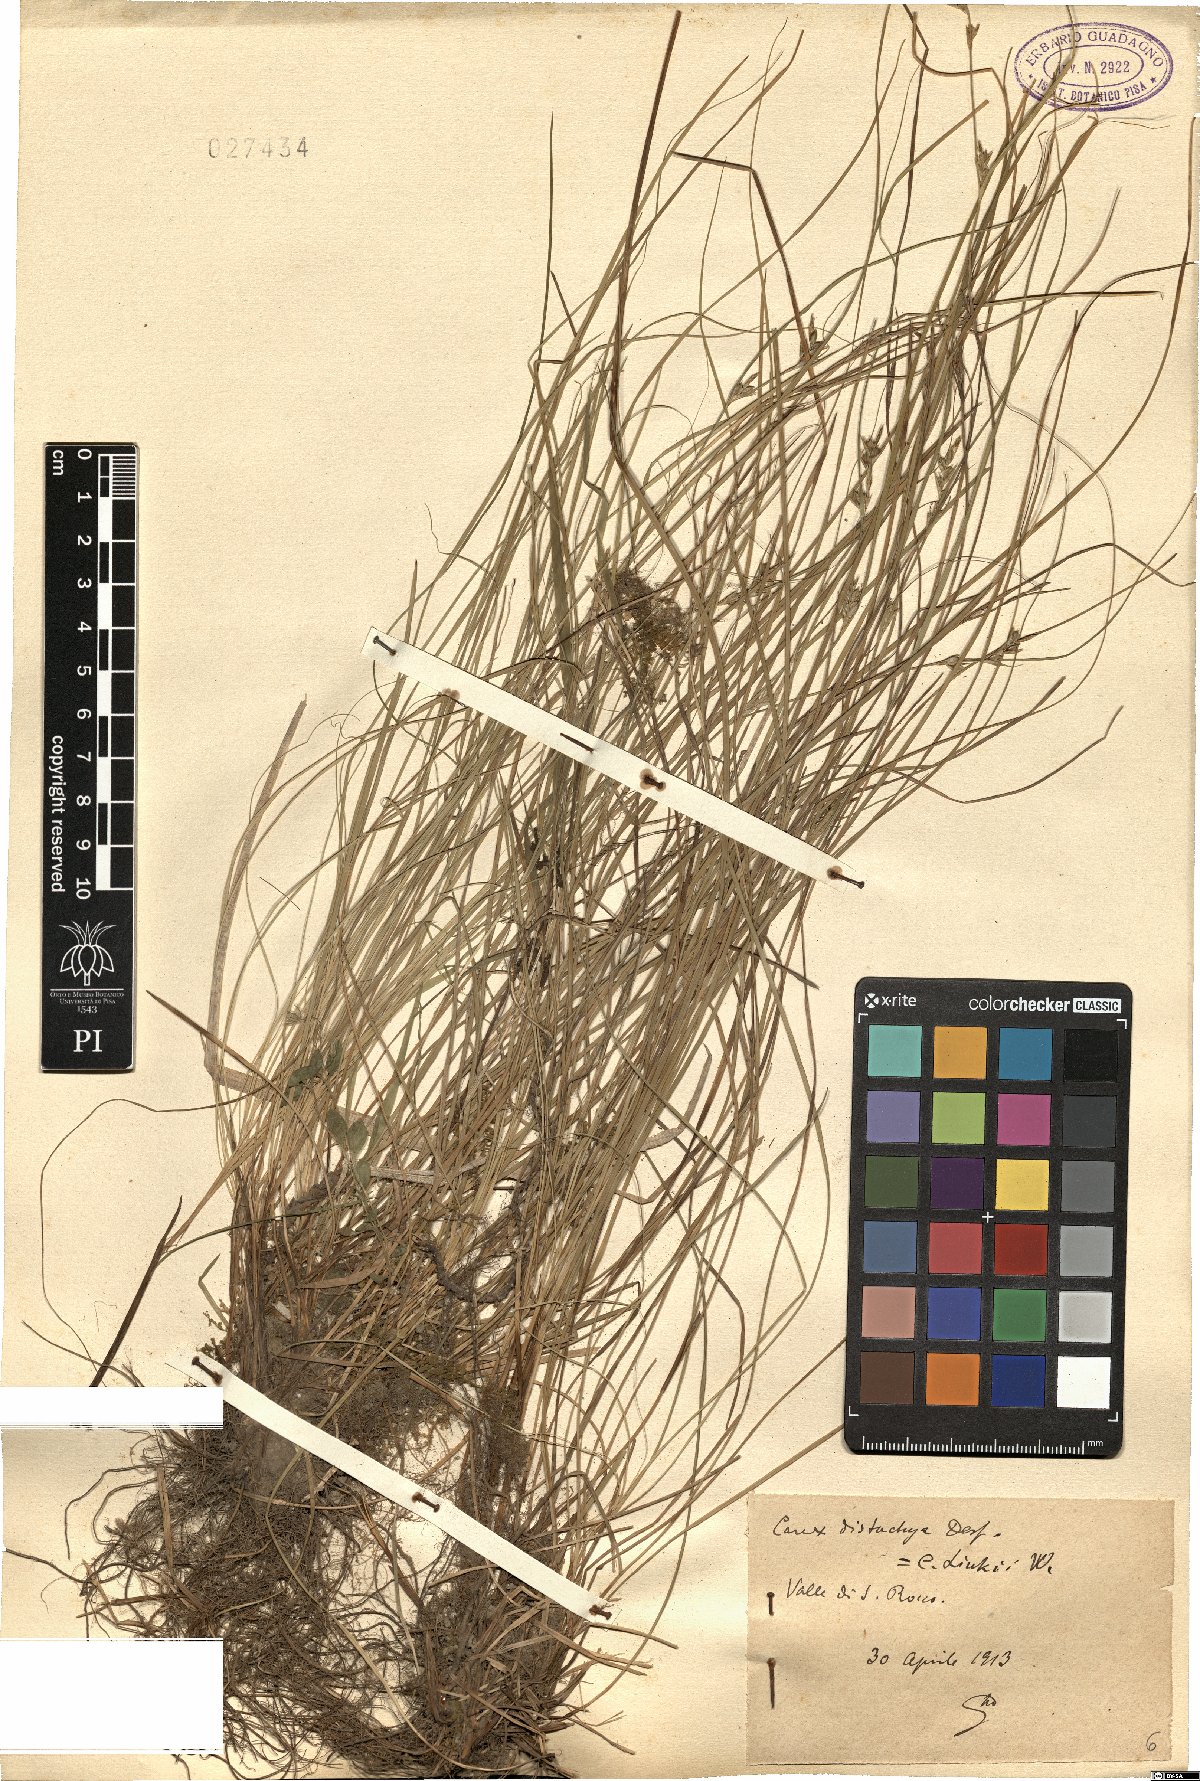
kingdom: Plantae
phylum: Tracheophyta
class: Liliopsida
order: Poales
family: Cyperaceae
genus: Carex
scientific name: Carex distachya
